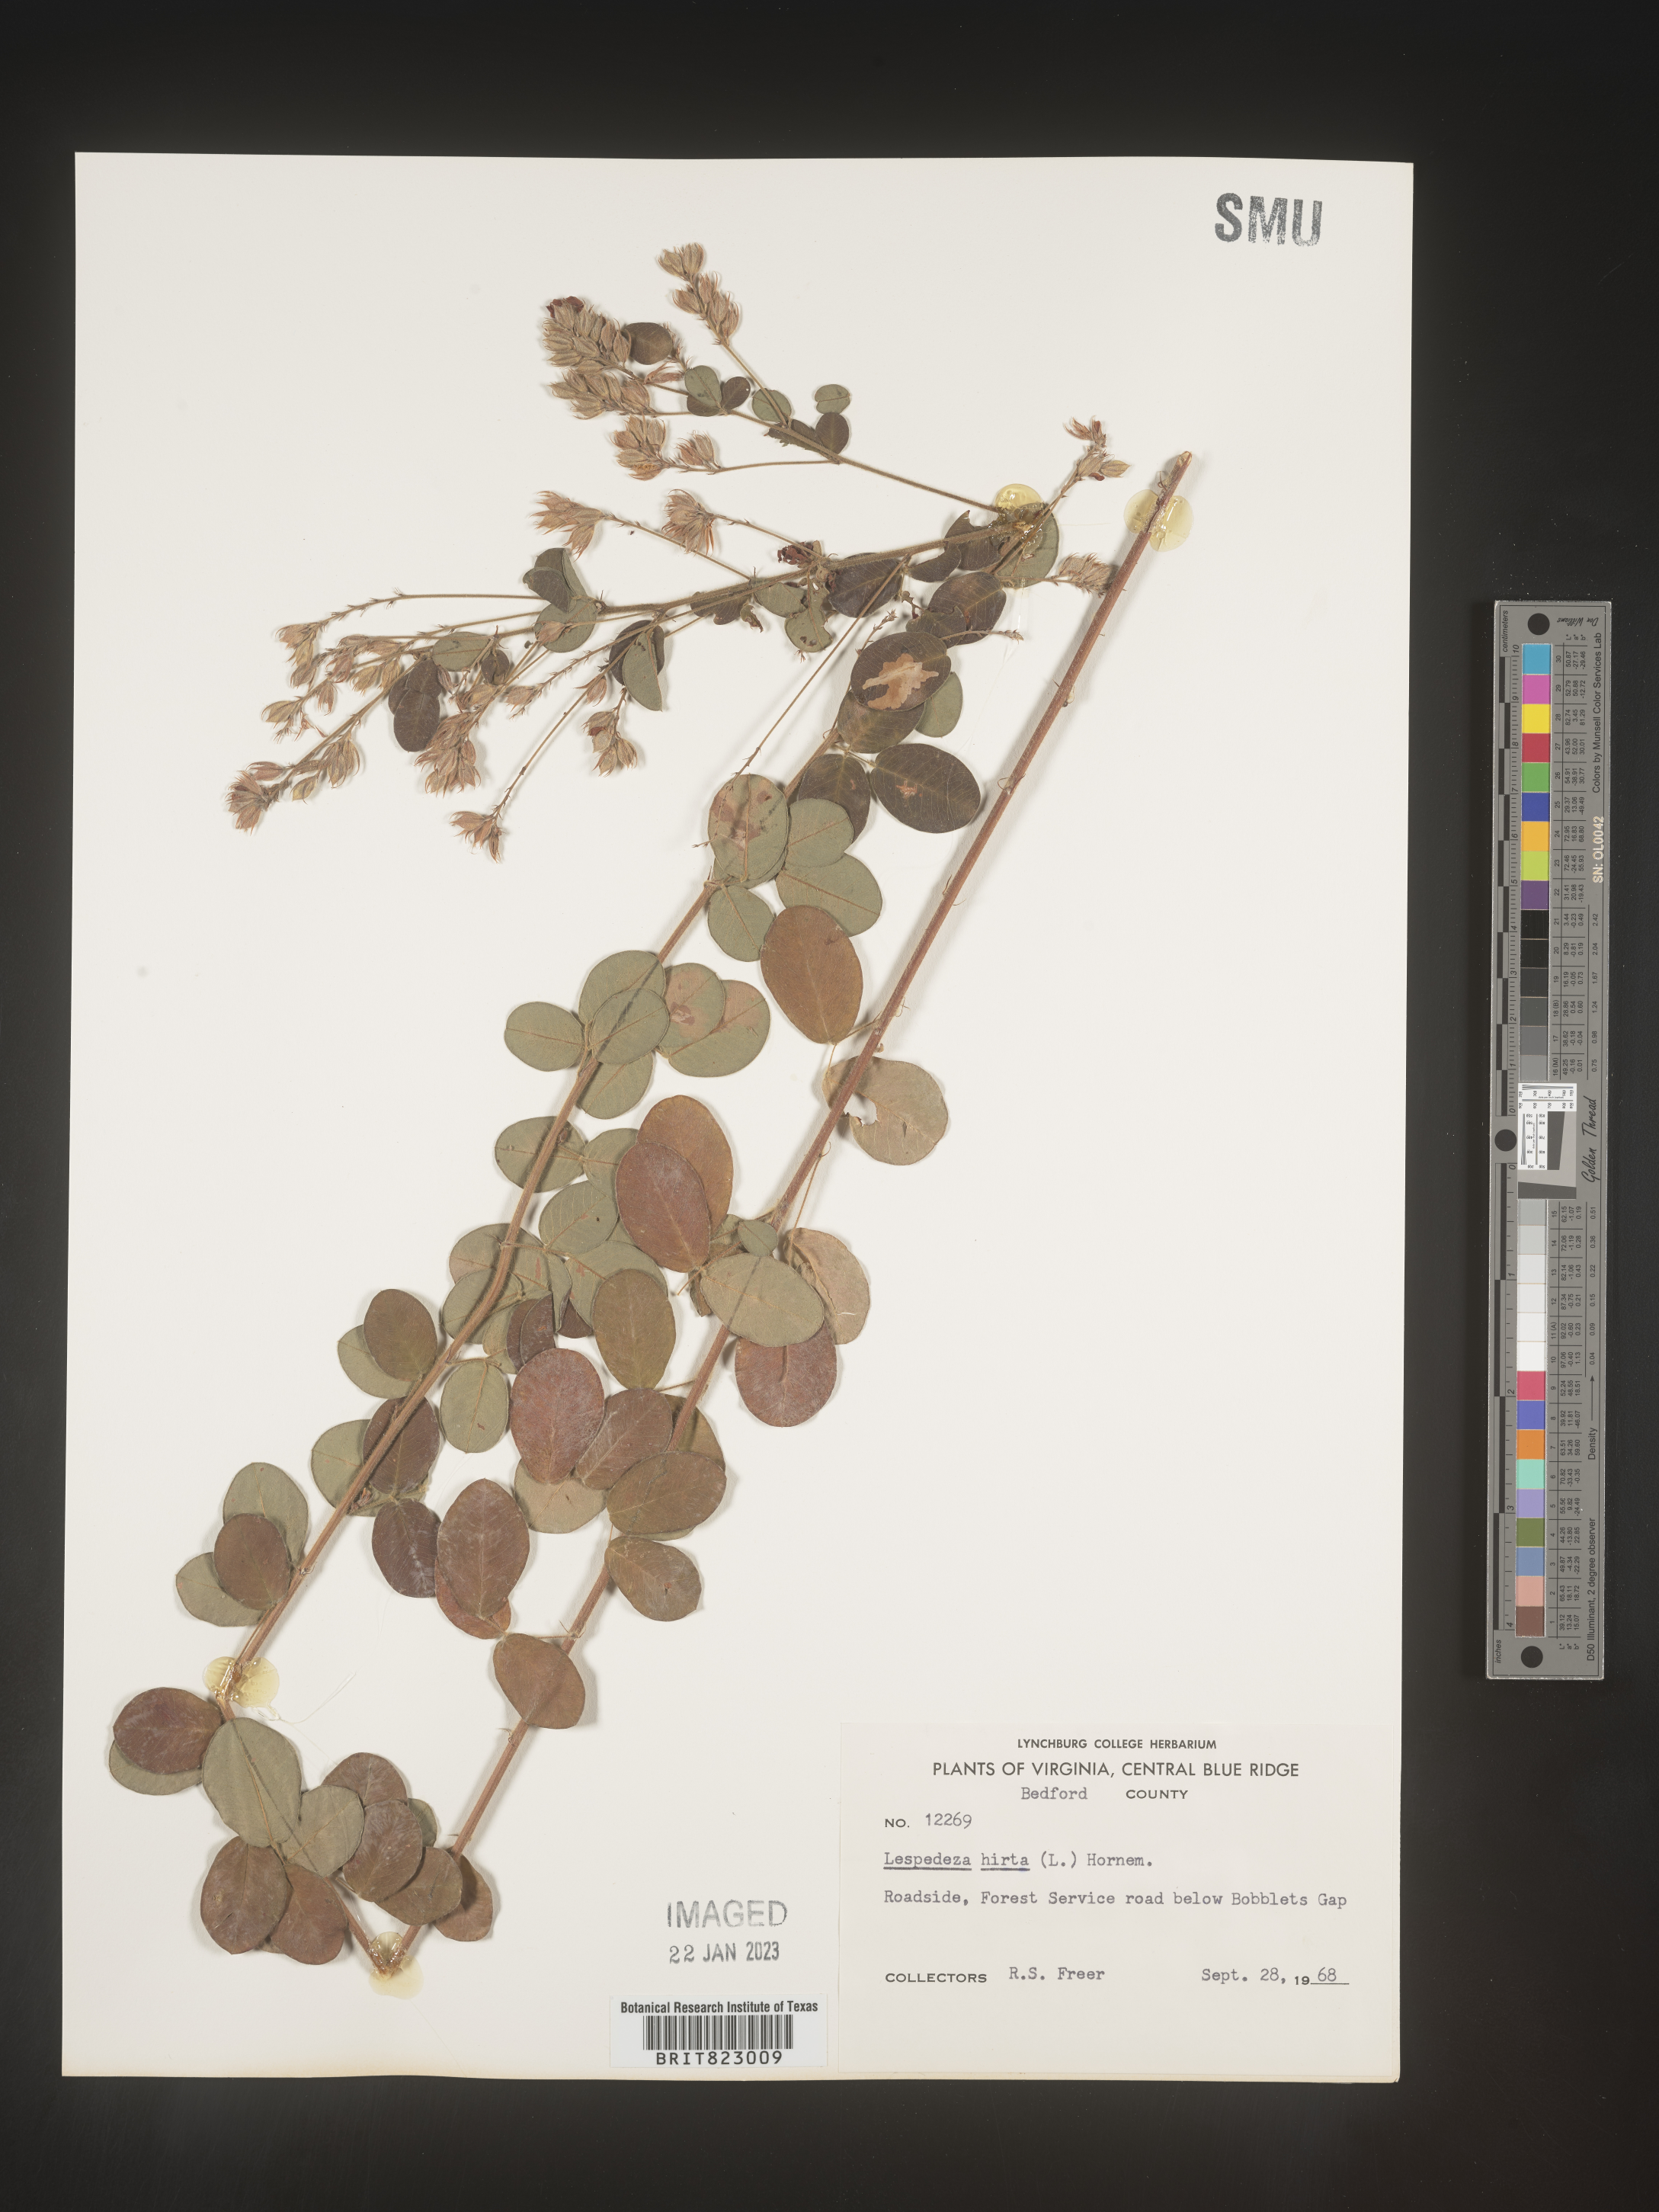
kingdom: Plantae
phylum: Tracheophyta
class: Magnoliopsida
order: Fabales
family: Fabaceae
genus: Lespedeza
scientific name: Lespedeza hirta
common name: Hairy lespedeza
